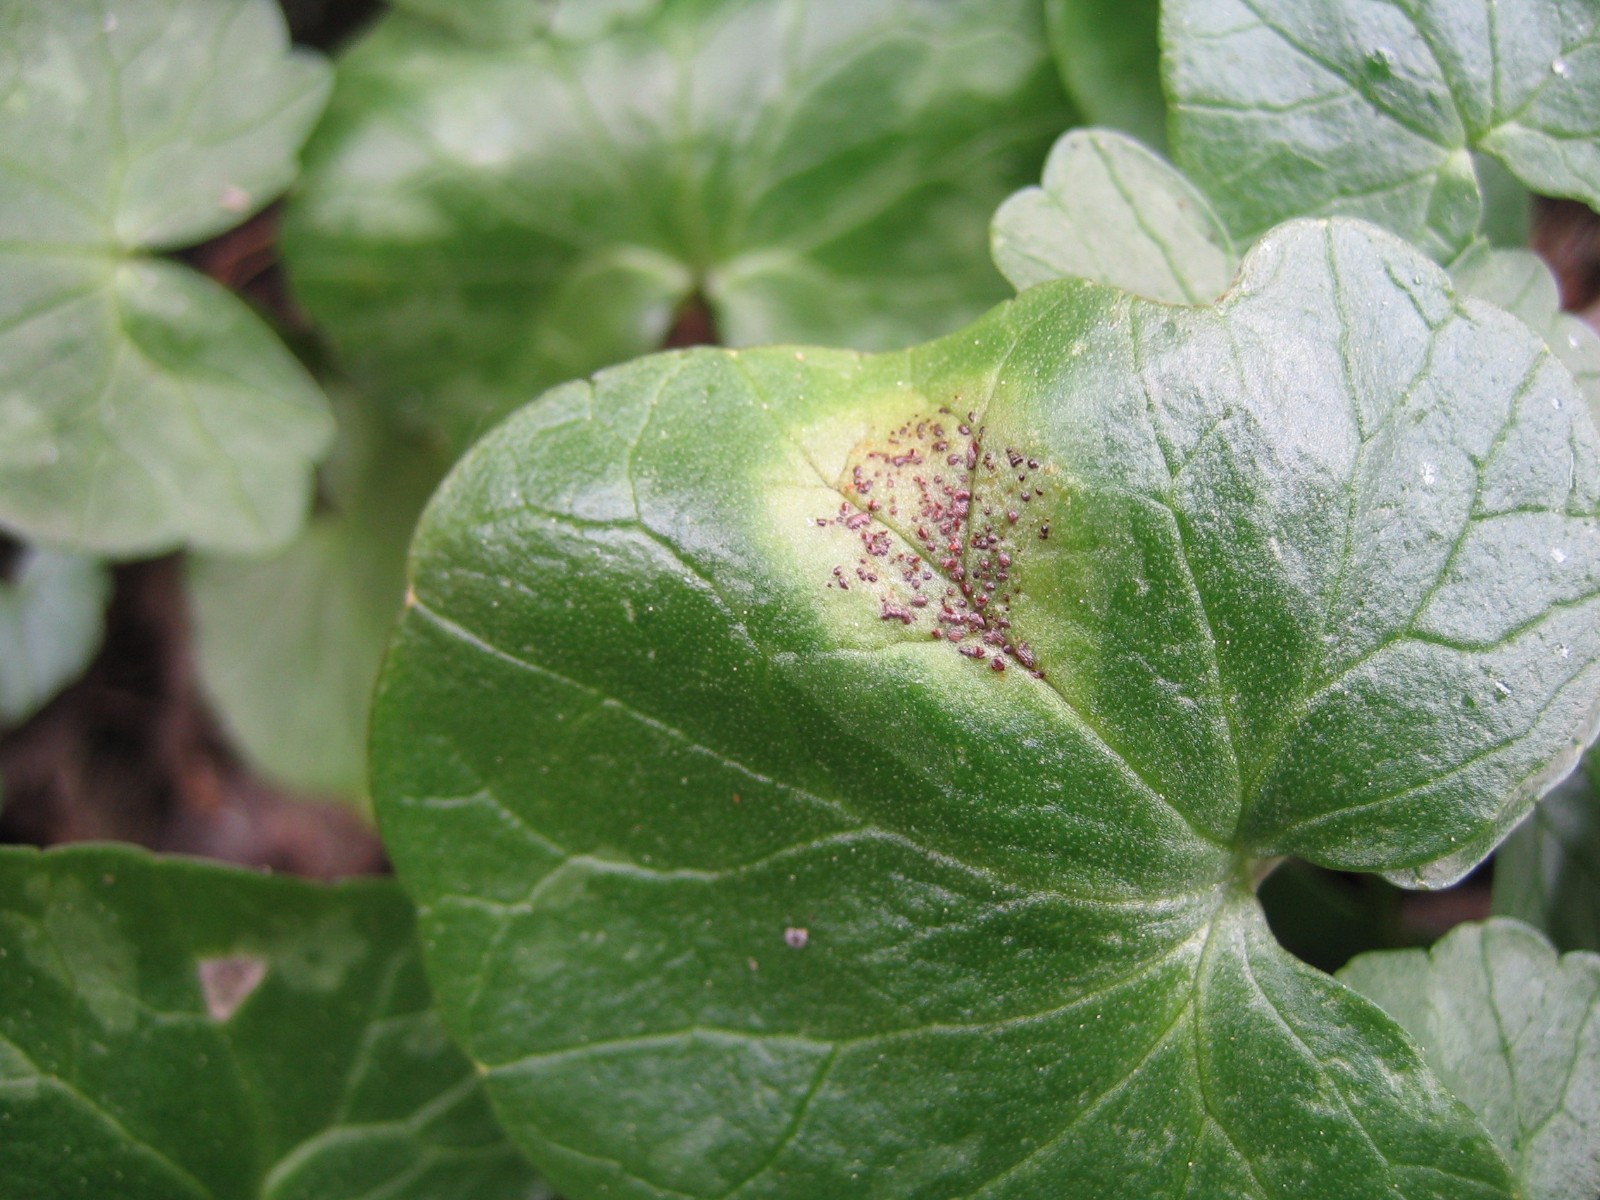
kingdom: Fungi
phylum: Basidiomycota
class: Pucciniomycetes
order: Pucciniales
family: Pucciniaceae
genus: Uromyces
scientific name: Uromyces ficariae
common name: vorterod-encellerust
